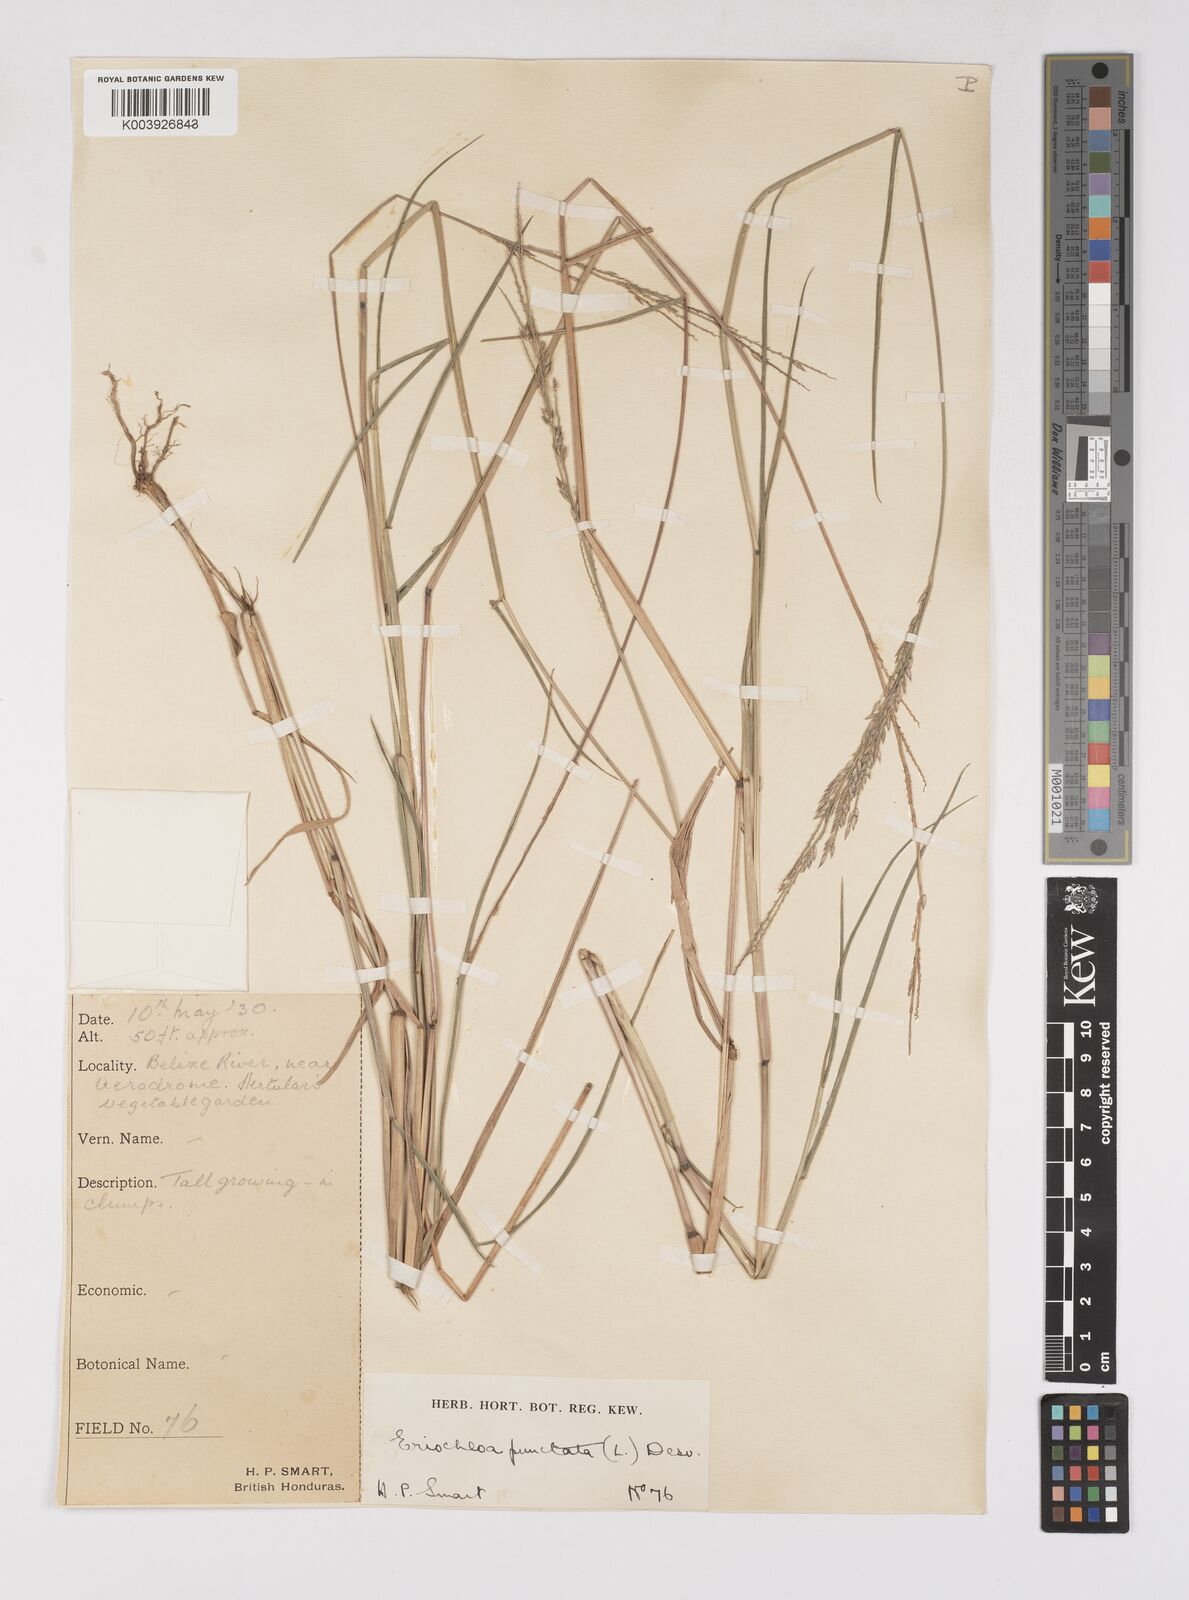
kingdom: Plantae
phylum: Tracheophyta
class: Liliopsida
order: Poales
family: Poaceae
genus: Eriochloa
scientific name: Eriochloa punctata
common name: Louisiana cupgrass
